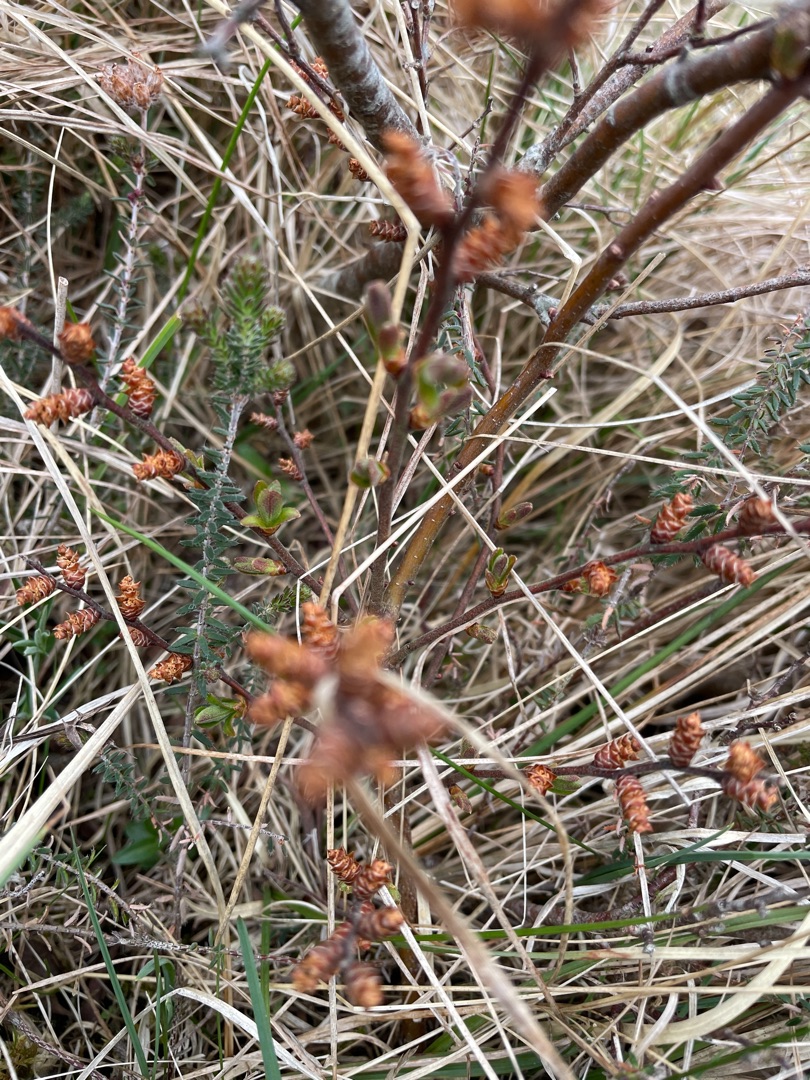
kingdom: Plantae
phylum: Tracheophyta
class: Magnoliopsida
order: Fagales
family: Myricaceae
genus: Myrica
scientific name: Myrica gale
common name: Pors
